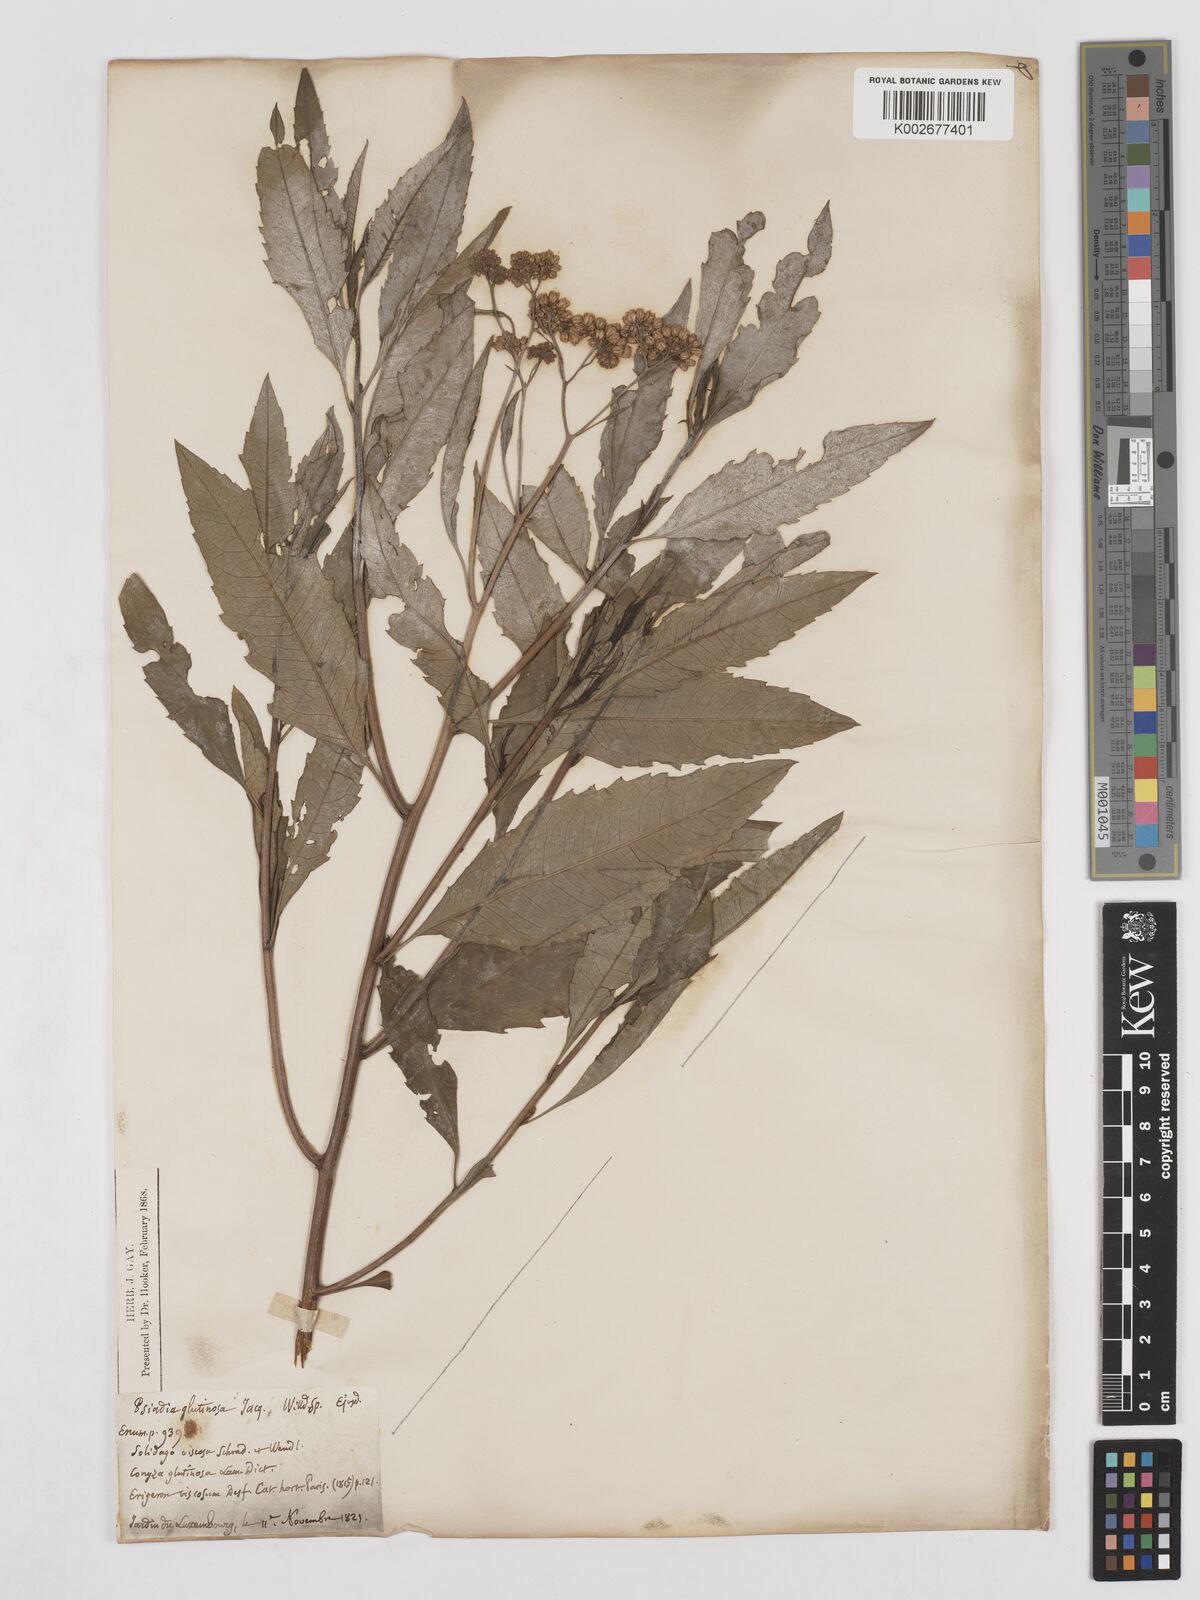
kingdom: Plantae
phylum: Tracheophyta
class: Magnoliopsida
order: Asterales
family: Asteraceae
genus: Psiadia
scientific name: Psiadia glutinosa
